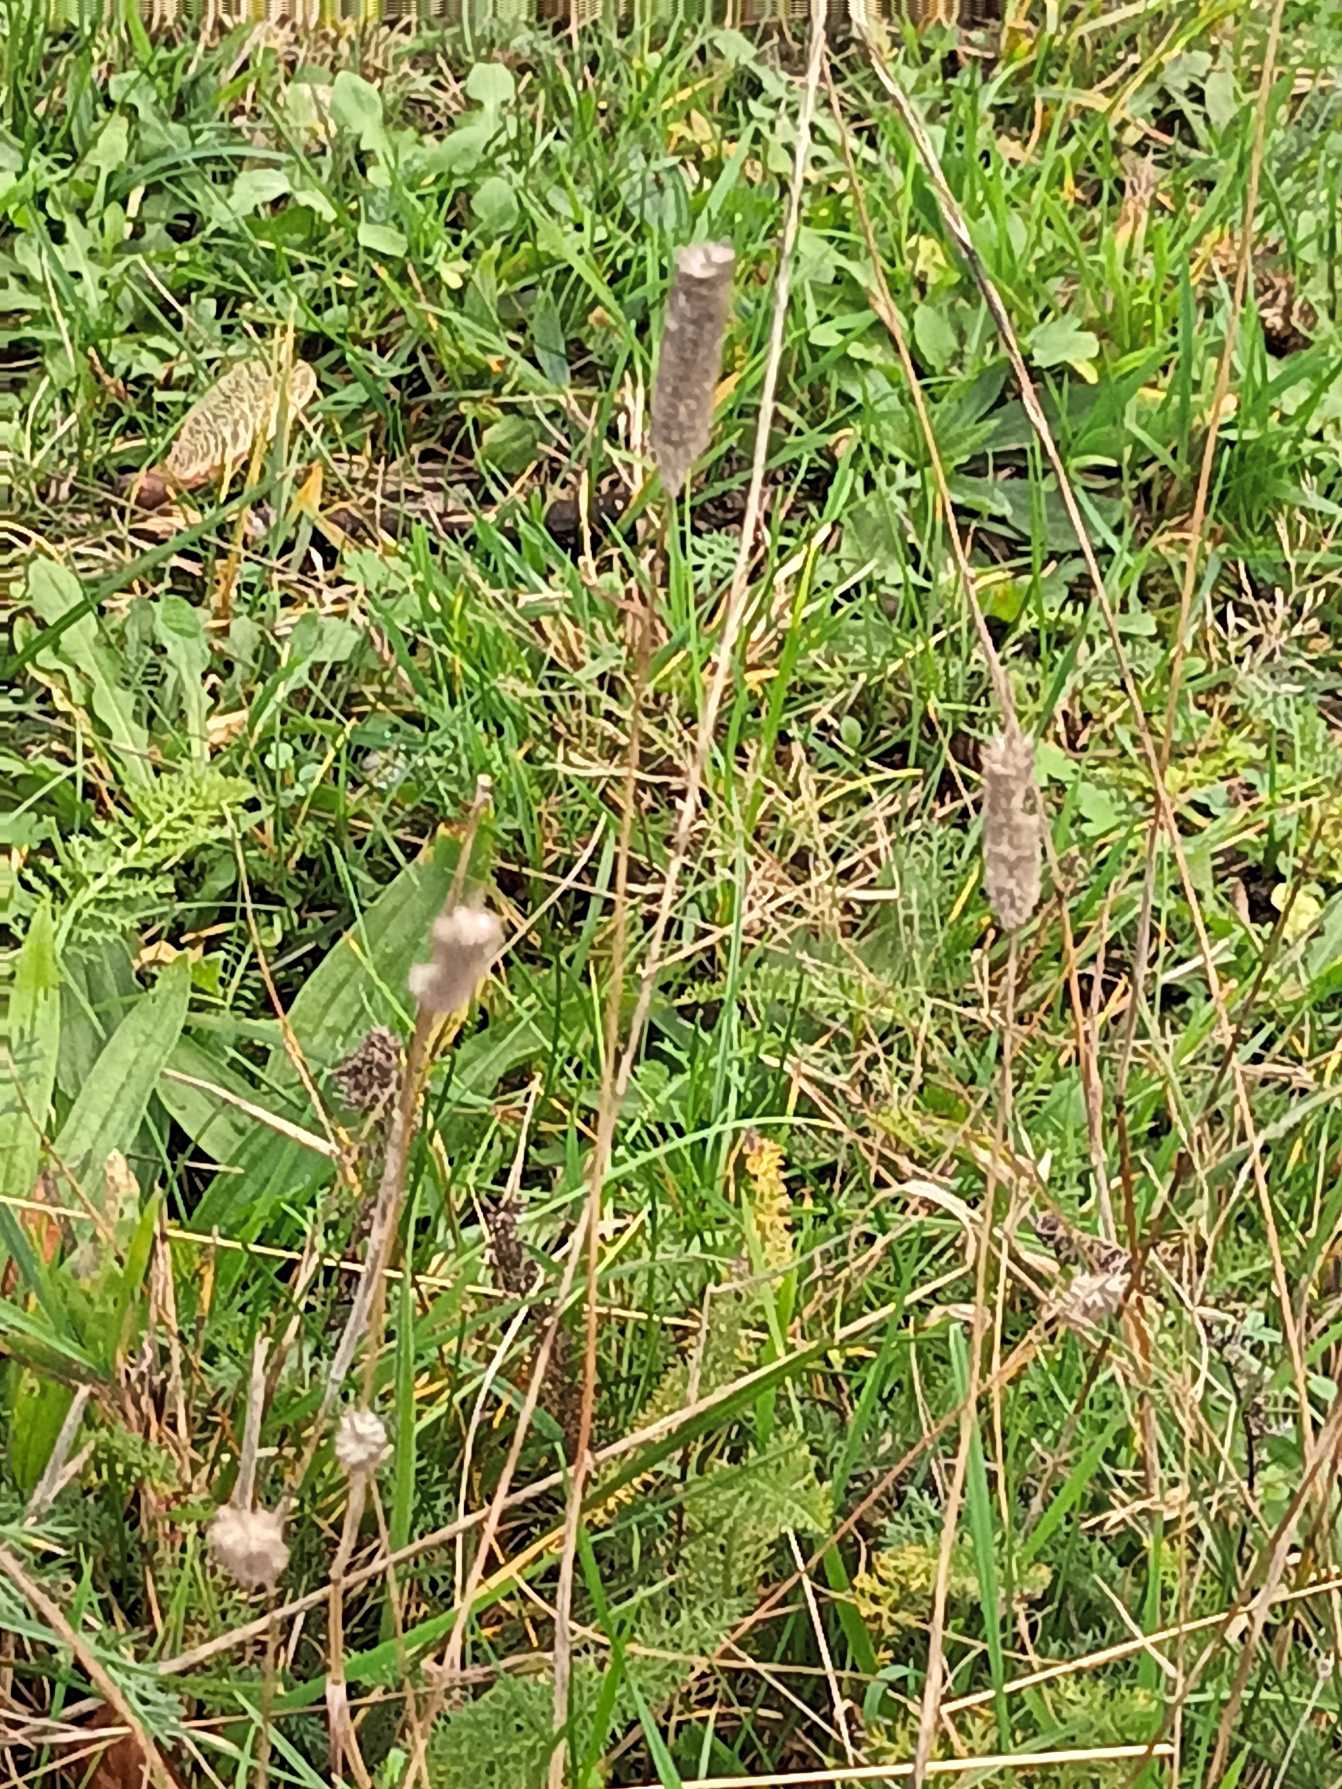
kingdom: Plantae
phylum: Tracheophyta
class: Liliopsida
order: Poales
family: Poaceae
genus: Phleum
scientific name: Phleum pratense
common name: Eng-rottehale
